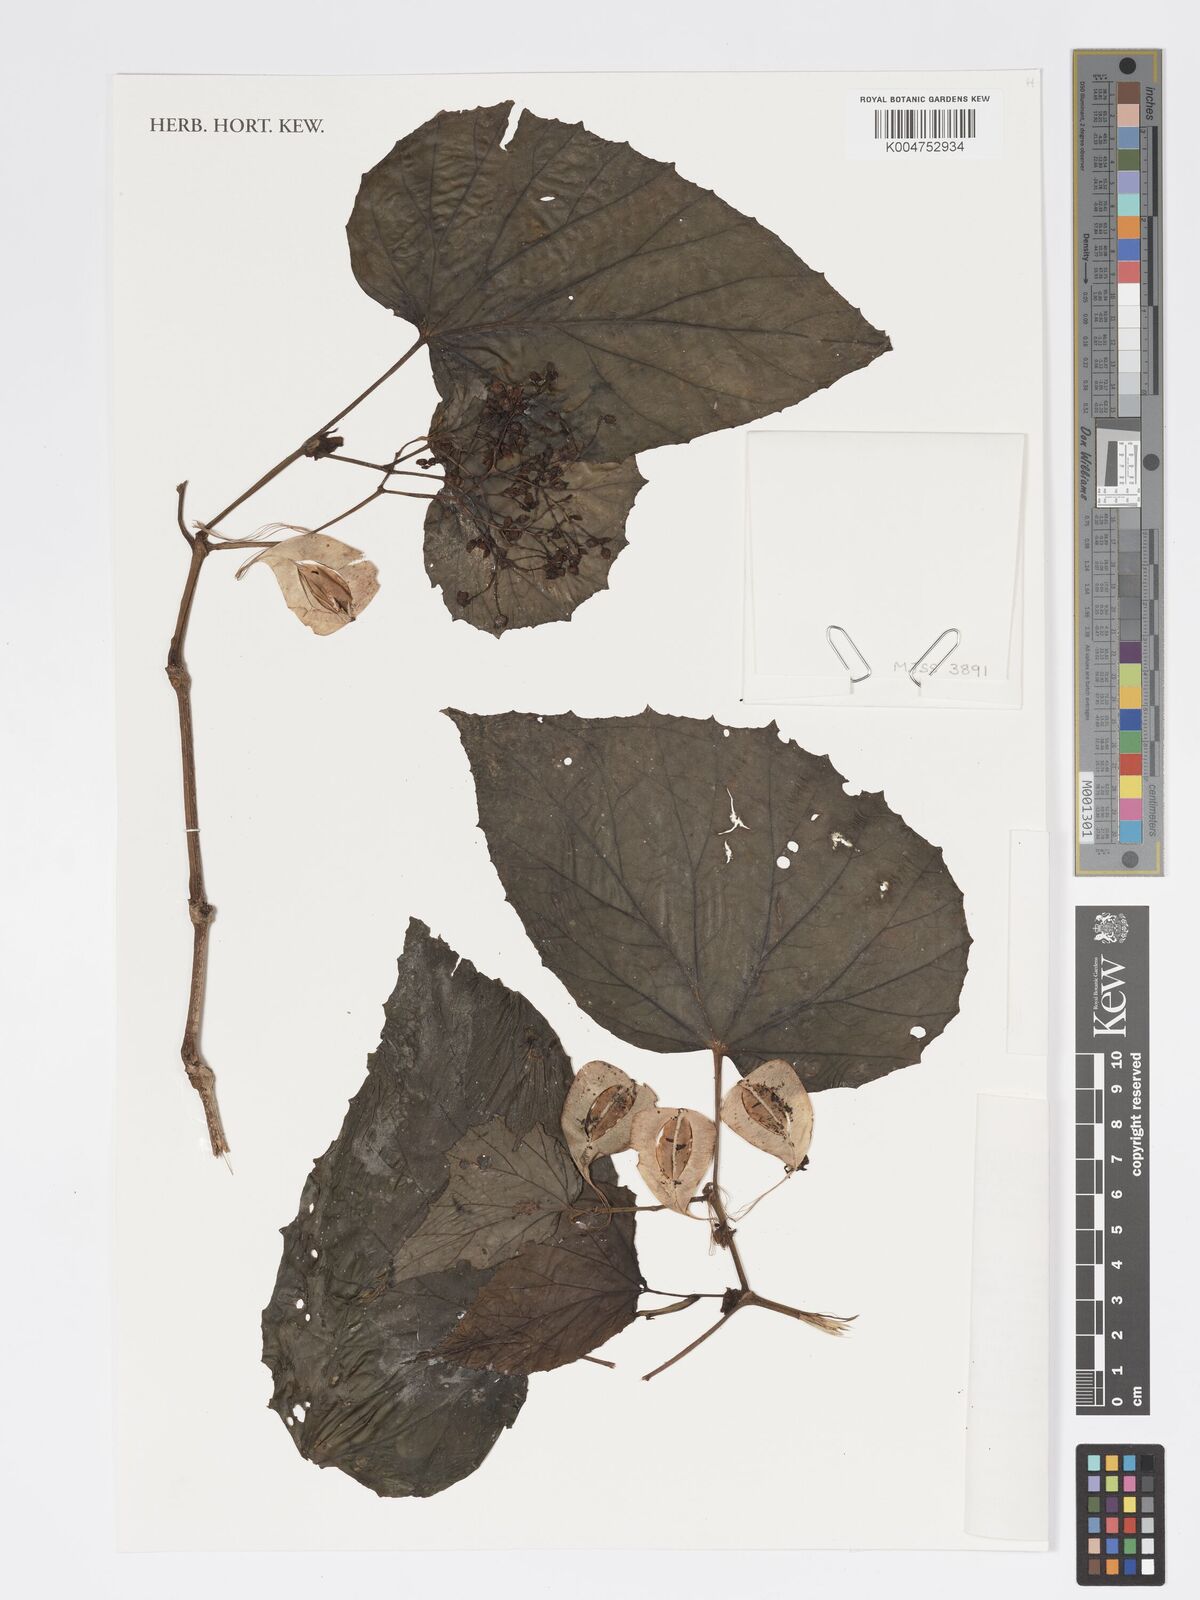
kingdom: Plantae
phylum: Tracheophyta
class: Magnoliopsida
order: Cucurbitales
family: Begoniaceae
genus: Begonia
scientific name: Begonia
